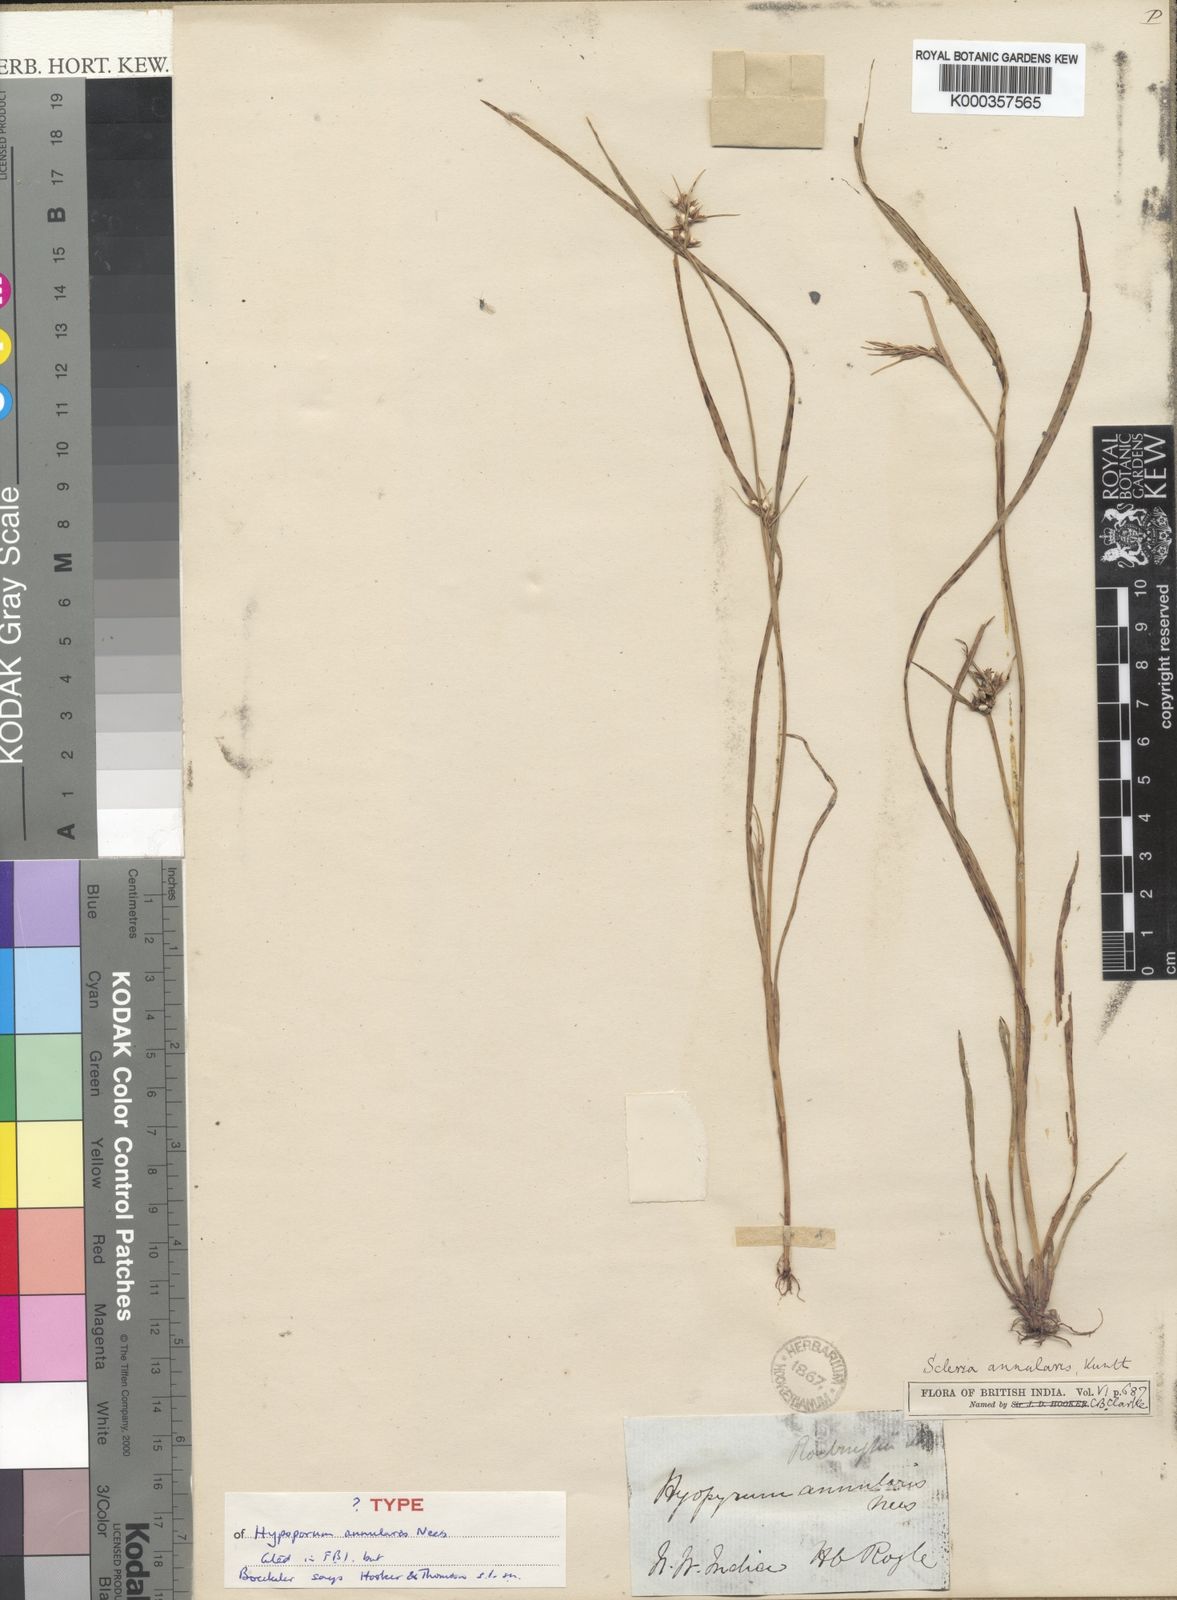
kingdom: Plantae
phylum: Tracheophyta
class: Liliopsida
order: Poales
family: Cyperaceae
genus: Scleria
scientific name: Scleria annularis
